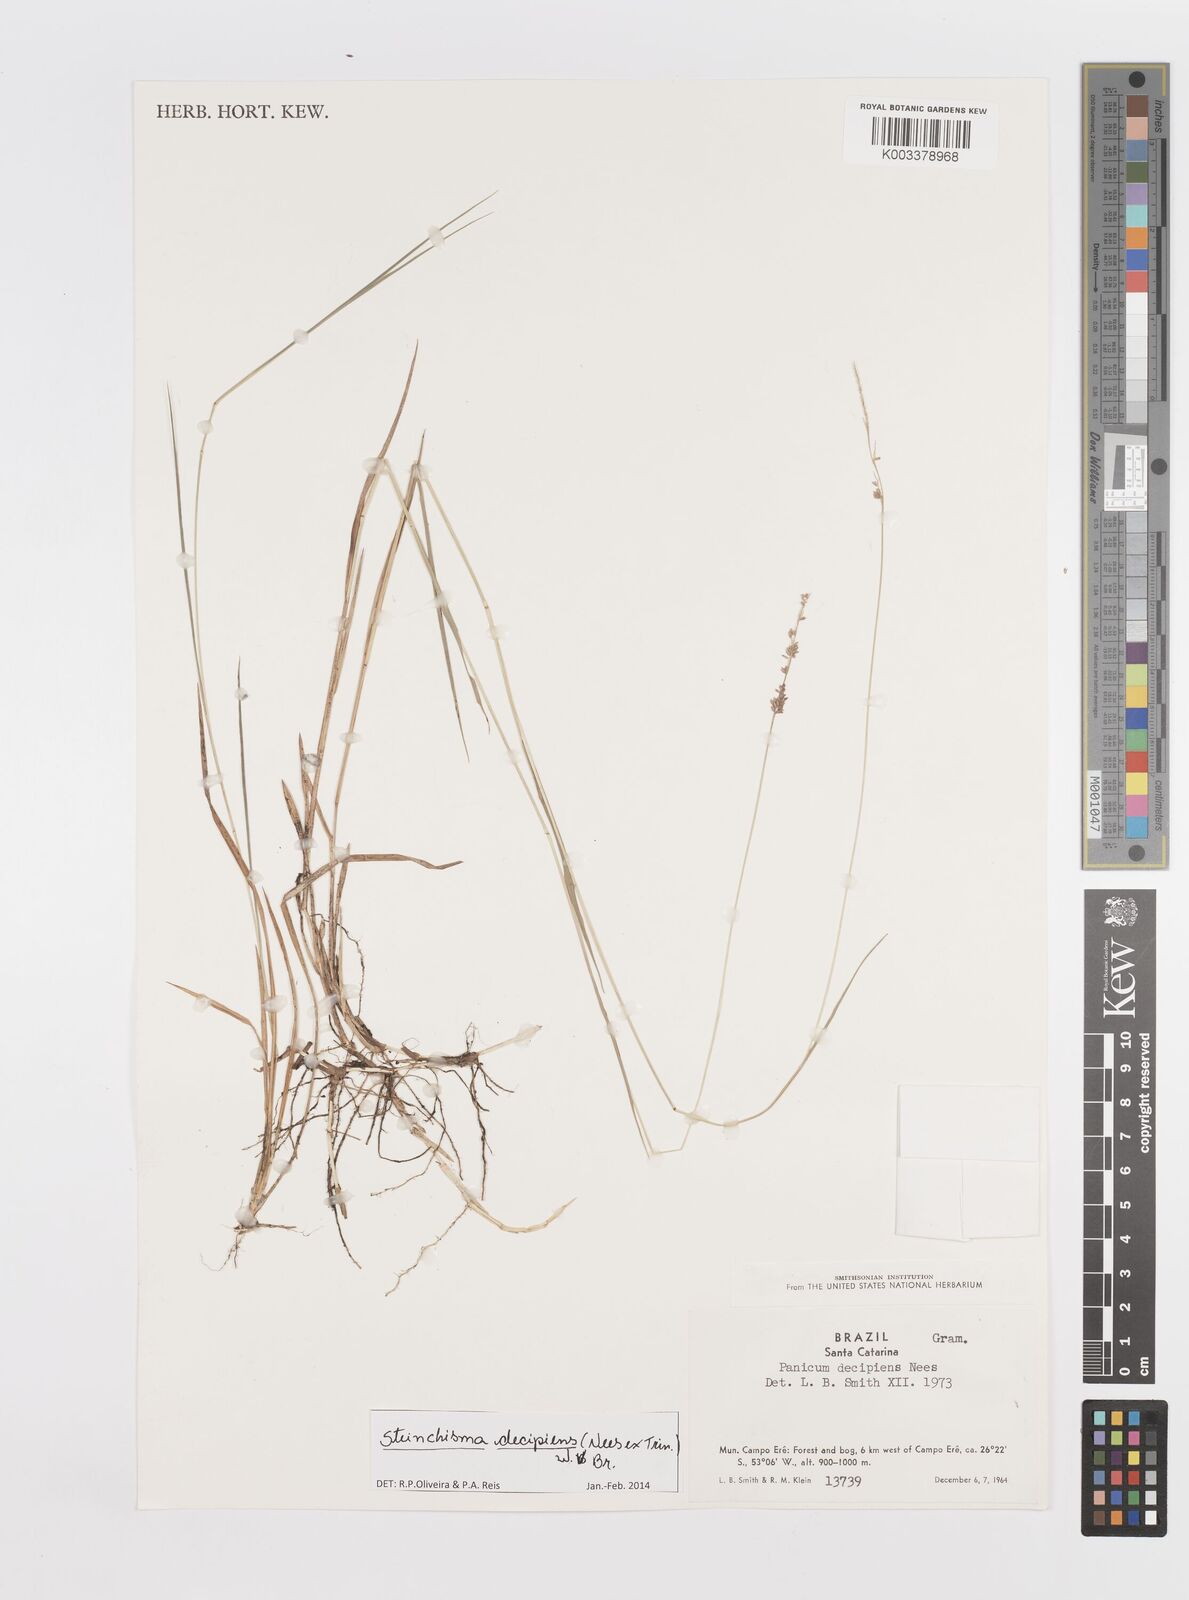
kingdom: Plantae
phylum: Tracheophyta
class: Liliopsida
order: Poales
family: Poaceae
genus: Steinchisma
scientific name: Steinchisma decipiens
